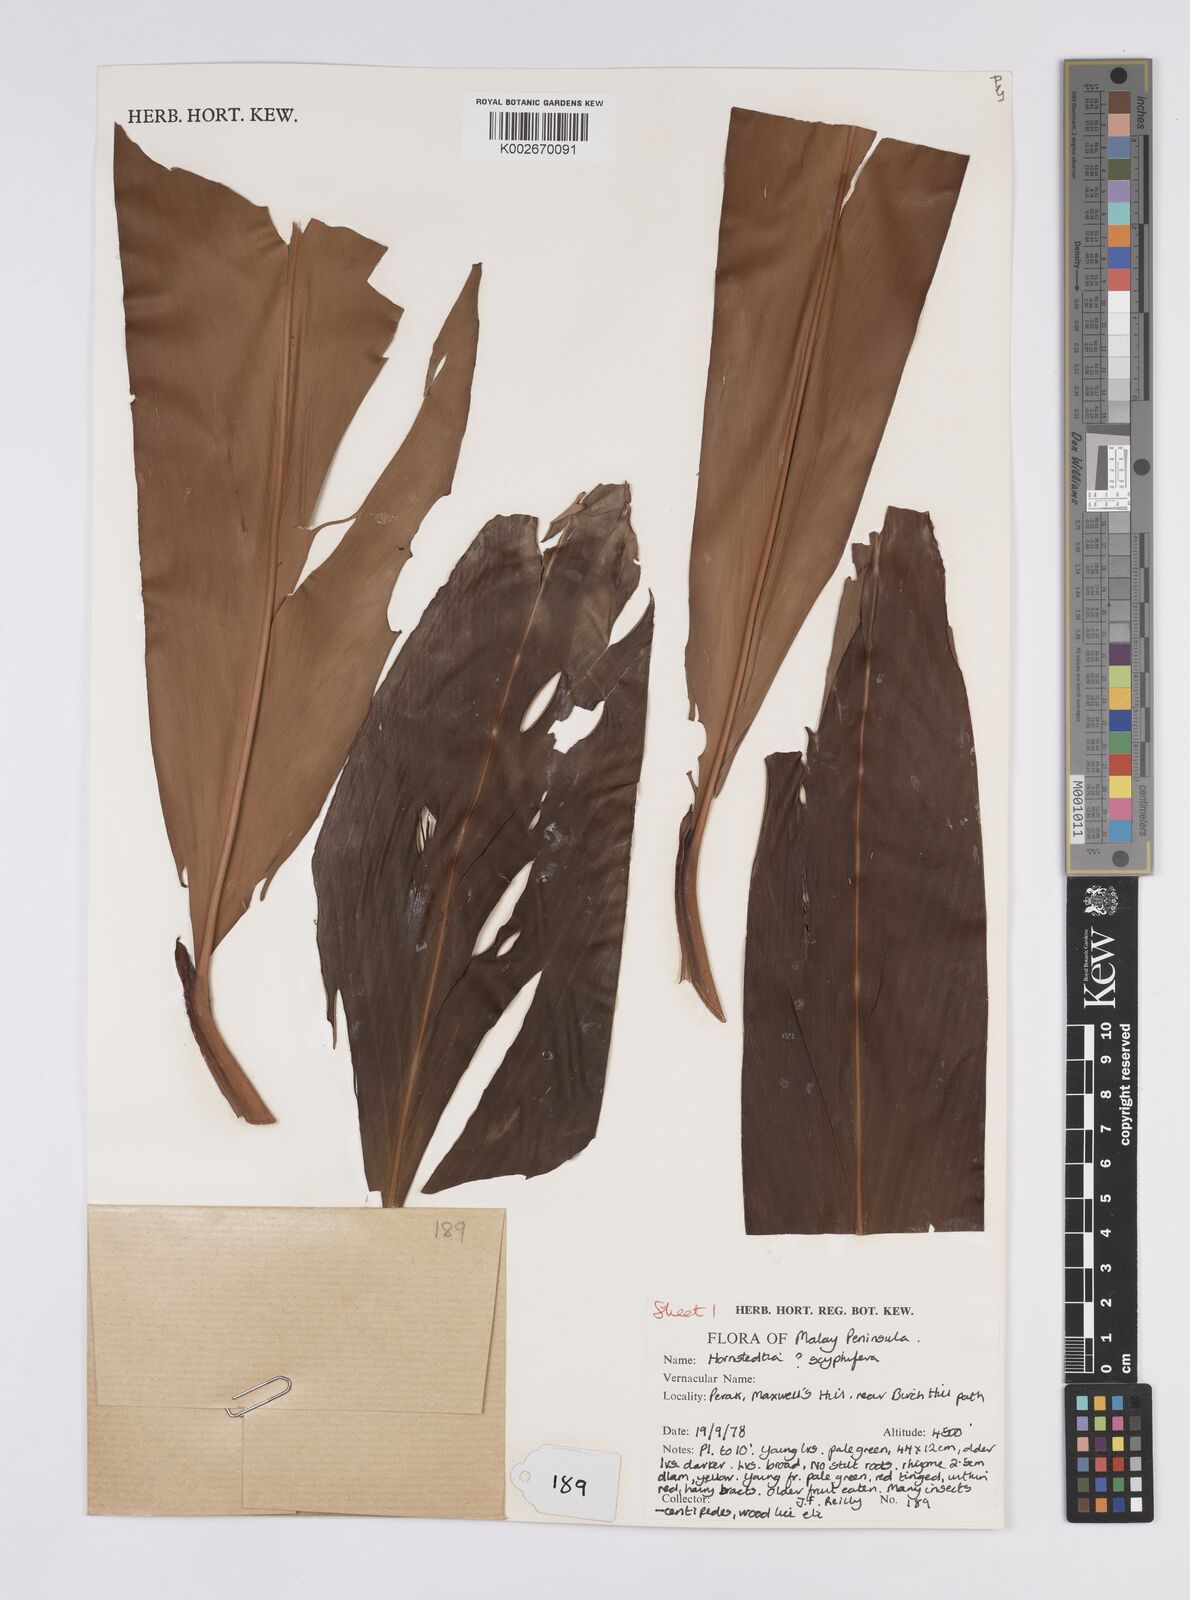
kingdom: Plantae
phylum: Tracheophyta
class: Liliopsida
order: Zingiberales
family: Zingiberaceae
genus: Hornstedtia
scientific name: Hornstedtia
